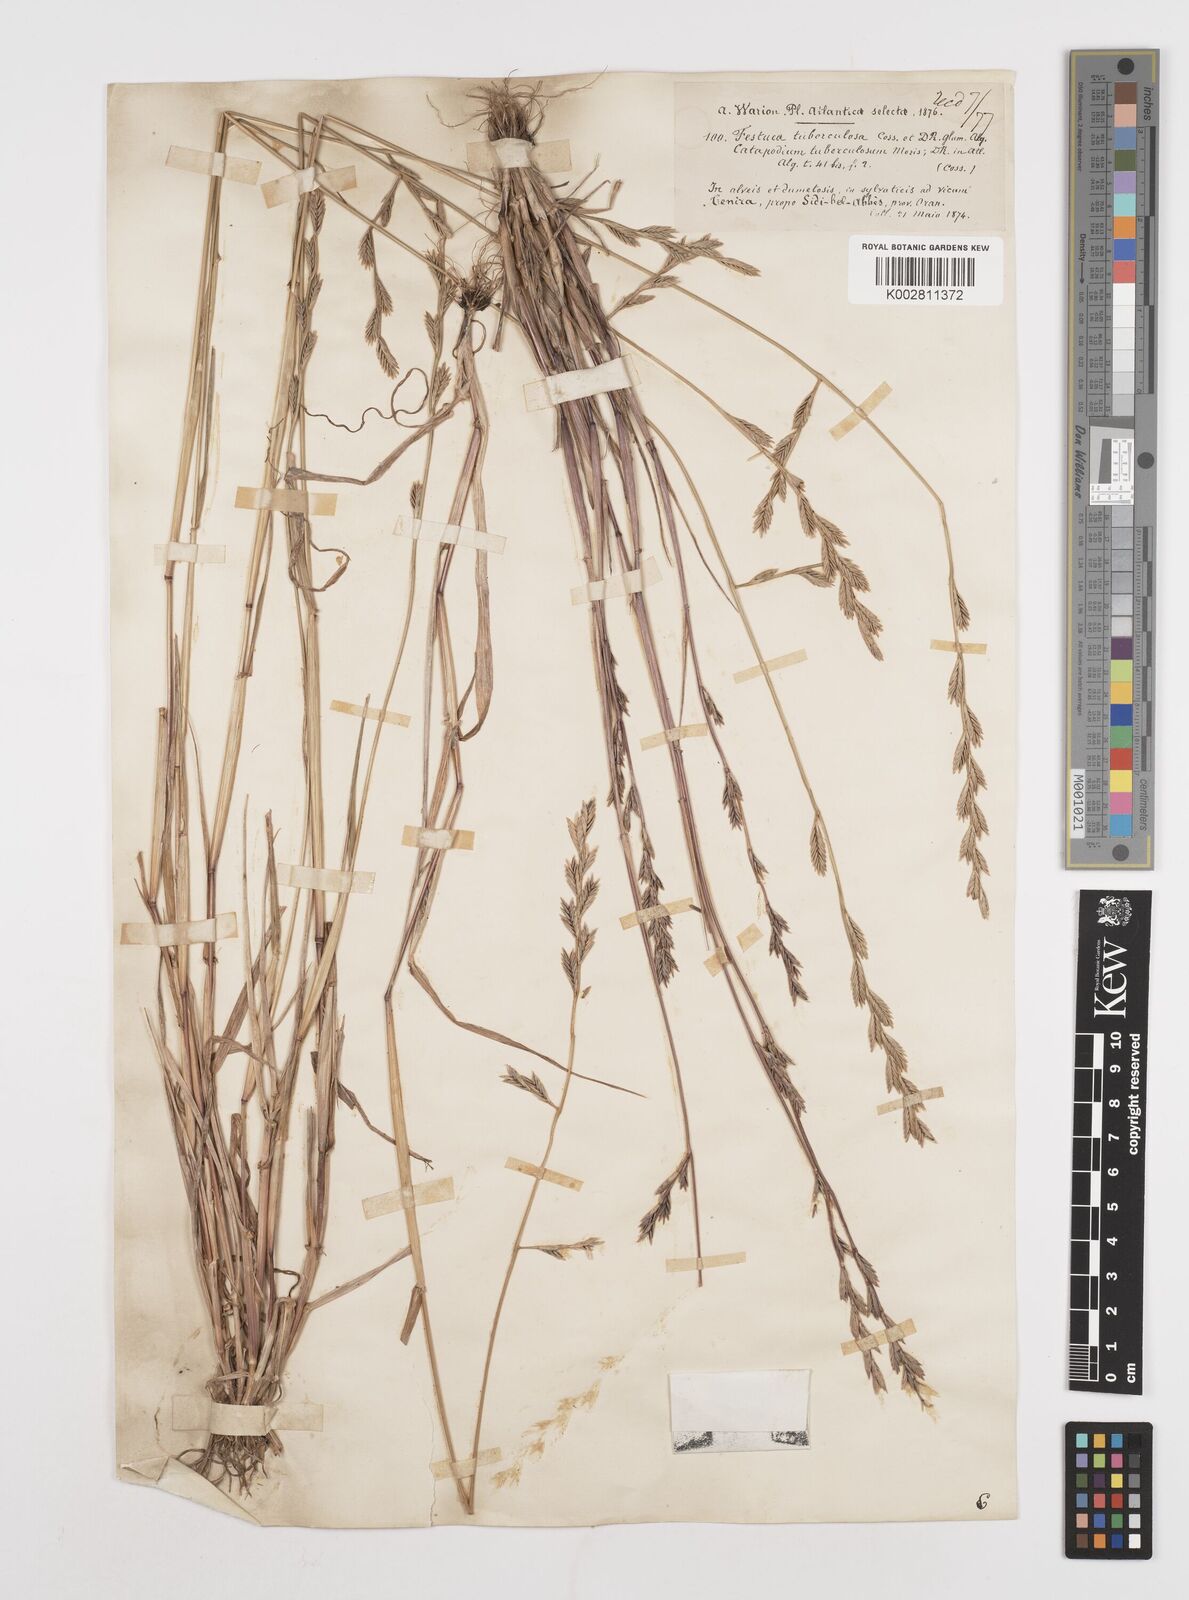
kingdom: Plantae
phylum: Tracheophyta
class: Liliopsida
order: Poales
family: Poaceae
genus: Castellia
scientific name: Castellia tuberculosa
